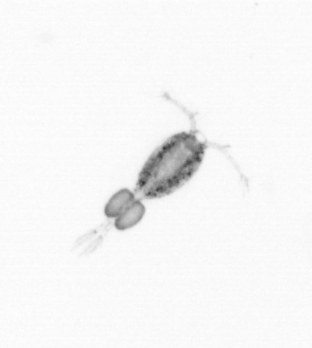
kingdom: Animalia
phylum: Arthropoda
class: Copepoda
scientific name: Copepoda
